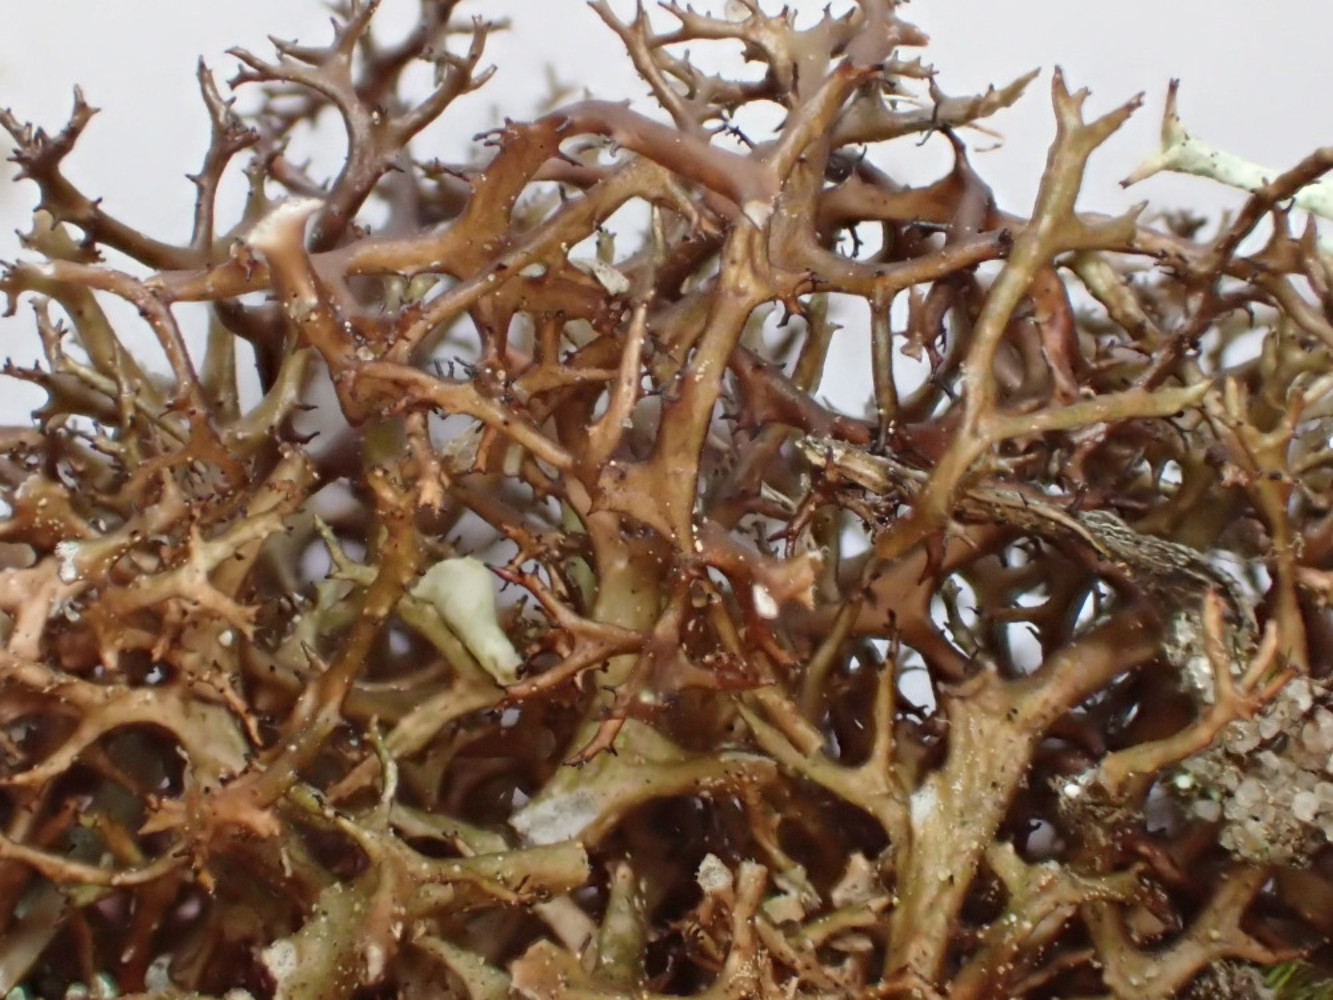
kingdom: Fungi
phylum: Ascomycota
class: Lecanoromycetes
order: Lecanorales
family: Parmeliaceae
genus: Cetraria
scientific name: Cetraria muricata
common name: tue-tjørnelav
